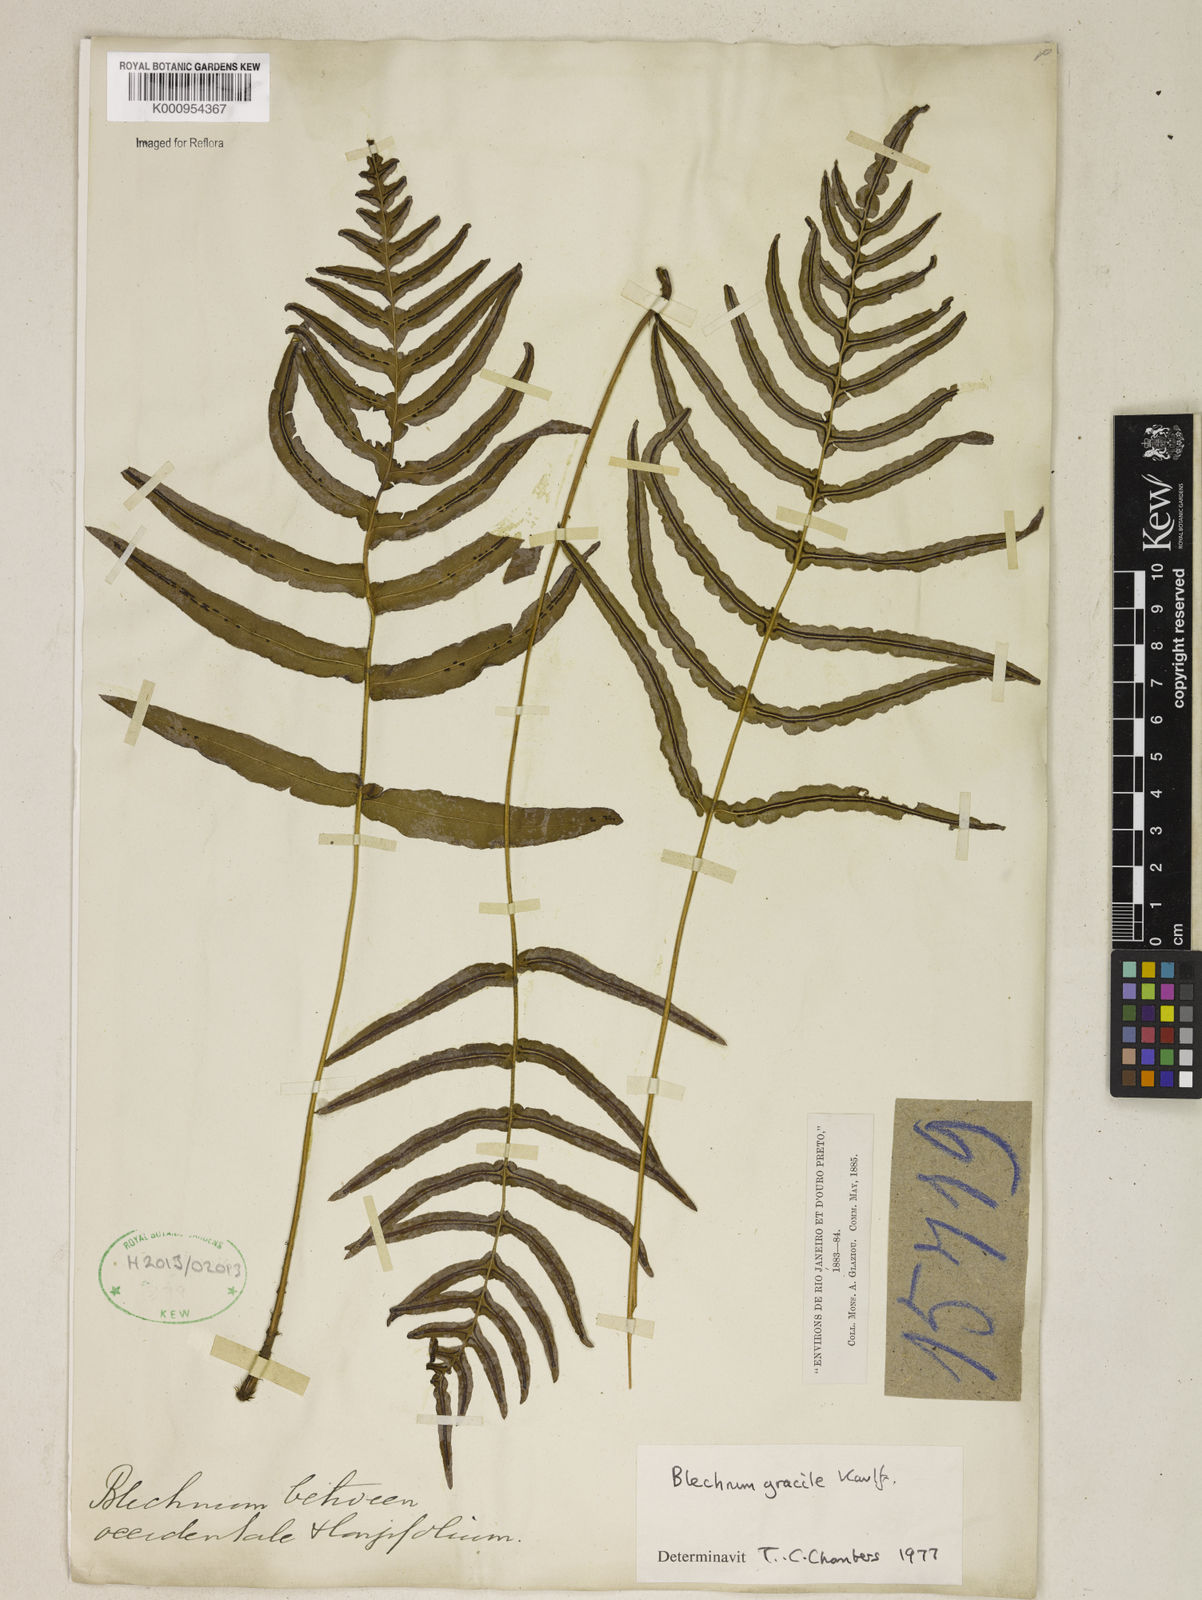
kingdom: Plantae
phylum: Tracheophyta
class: Polypodiopsida
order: Polypodiales
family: Blechnaceae
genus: Blechnum
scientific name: Blechnum gracile
